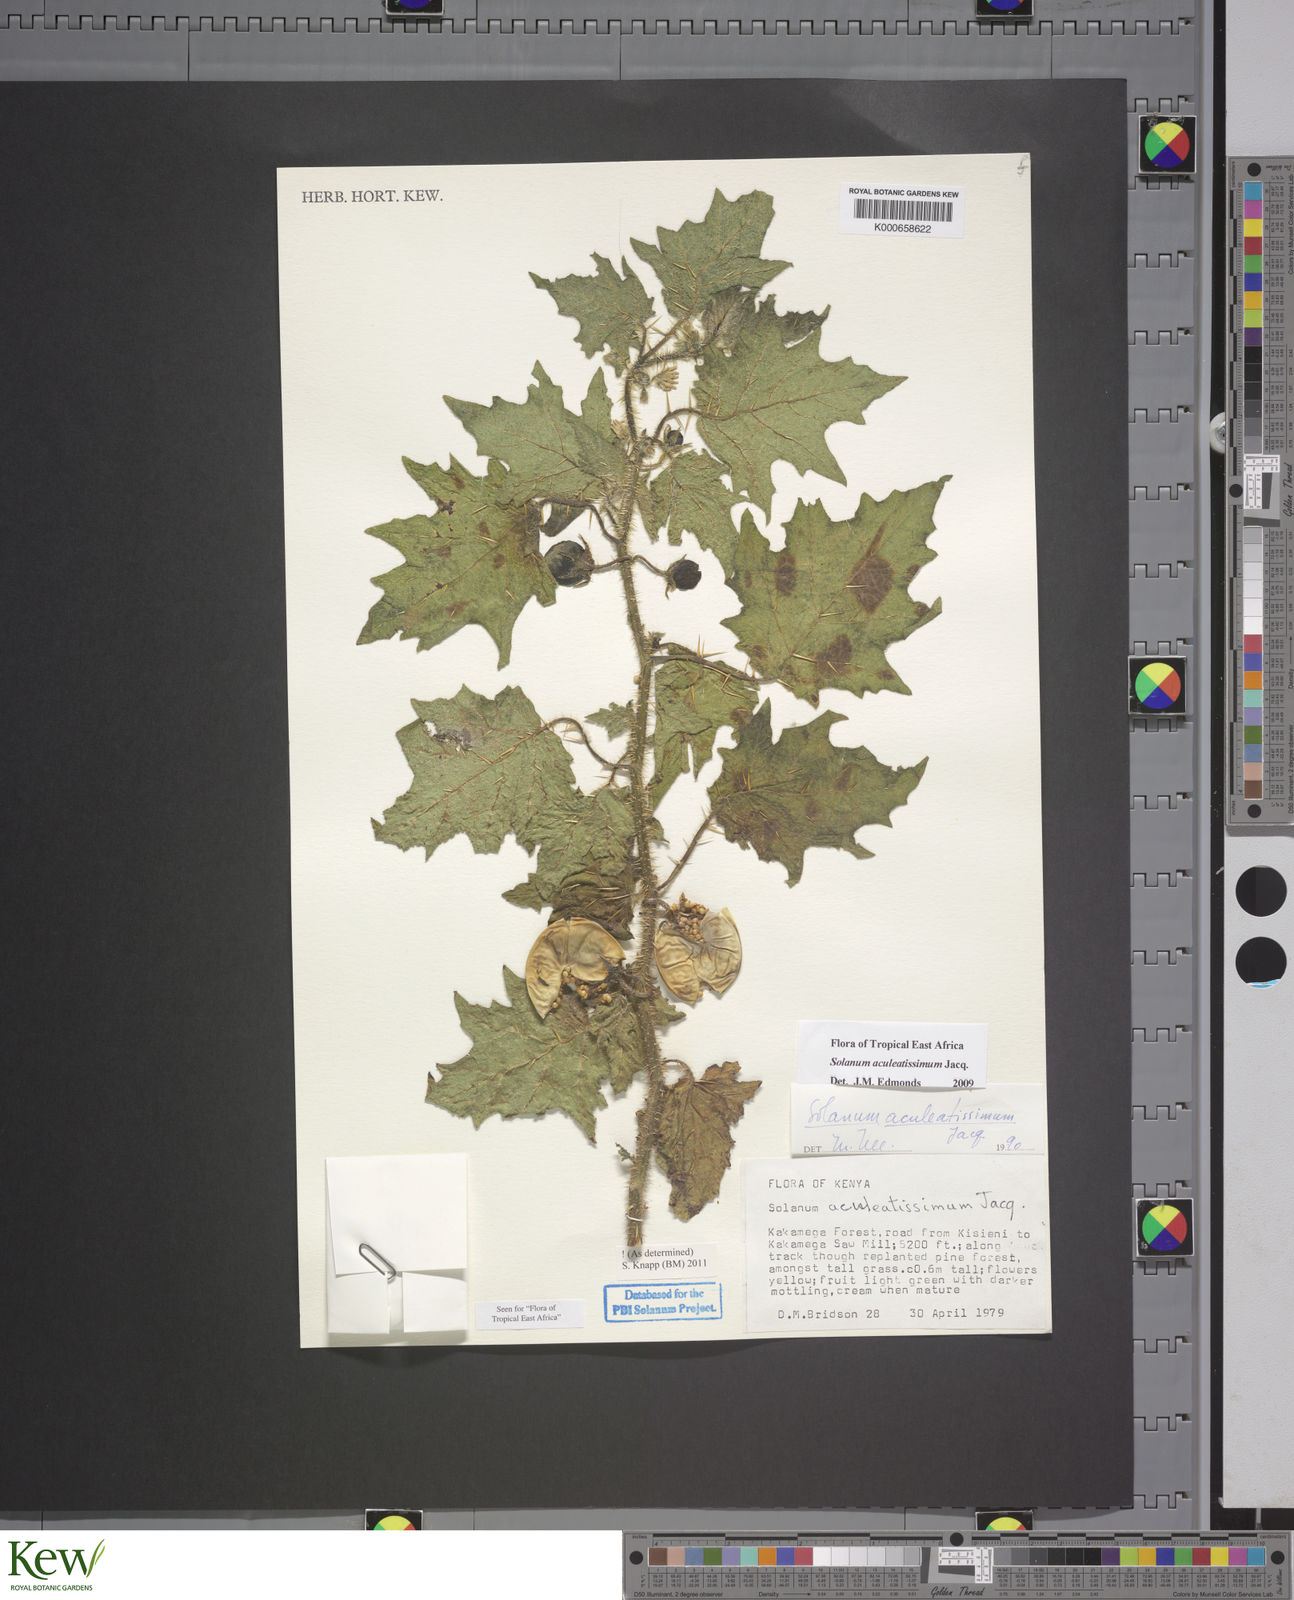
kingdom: Plantae
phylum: Tracheophyta
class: Magnoliopsida
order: Solanales
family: Solanaceae
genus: Solanum
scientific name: Solanum aculeatissimum
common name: Dutch eggplant
